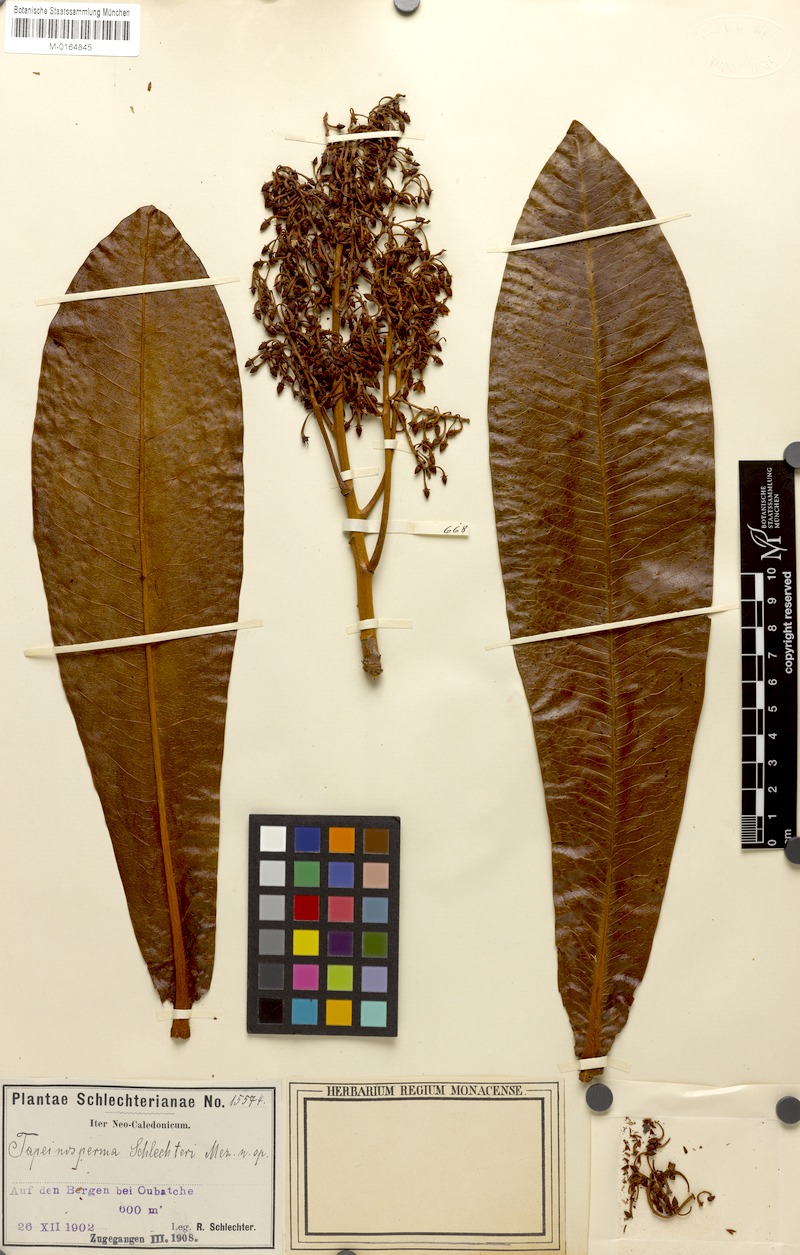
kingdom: Plantae
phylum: Tracheophyta
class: Magnoliopsida
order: Ericales
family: Primulaceae
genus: Tapeinosperma
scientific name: Tapeinosperma schlechteri
